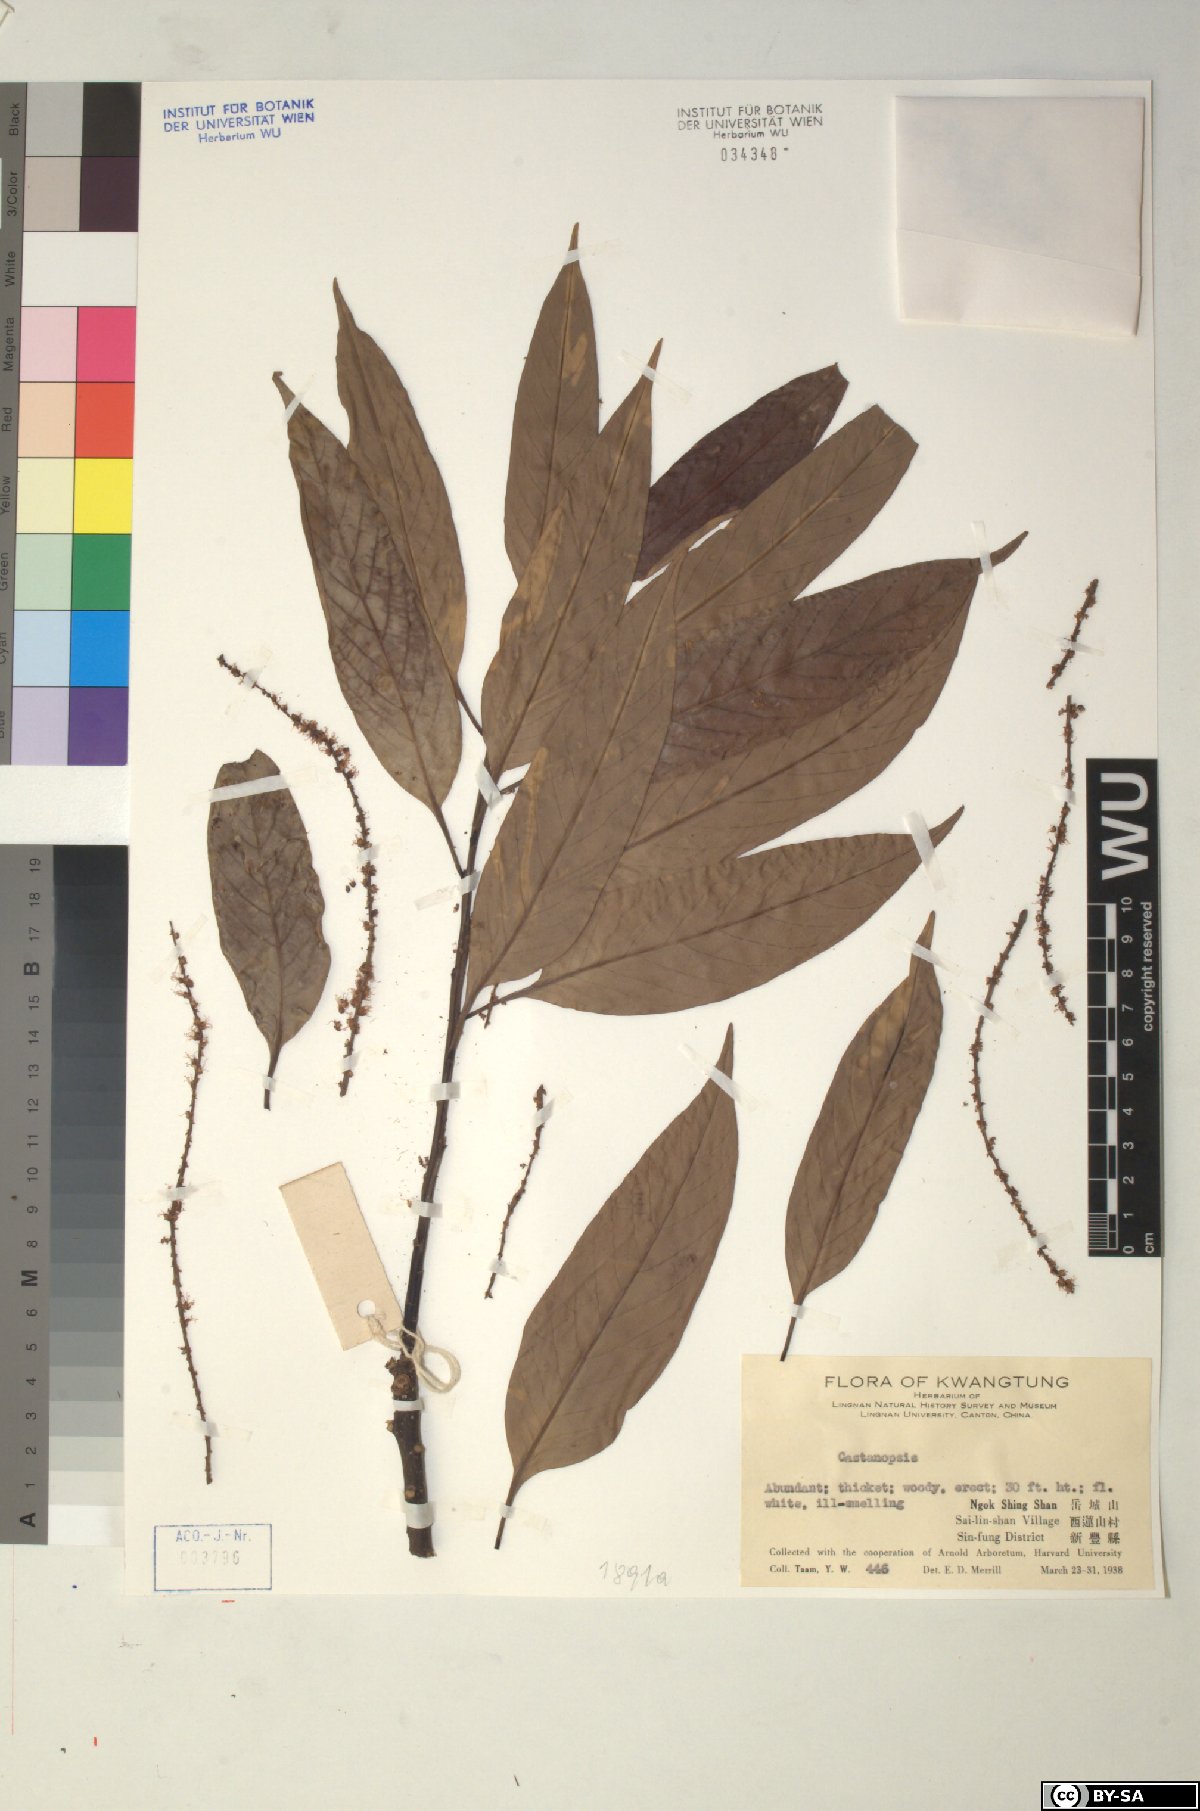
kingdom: Plantae
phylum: Tracheophyta
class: Magnoliopsida
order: Fagales
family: Fagaceae
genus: Castanopsis
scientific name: Castanopsis
